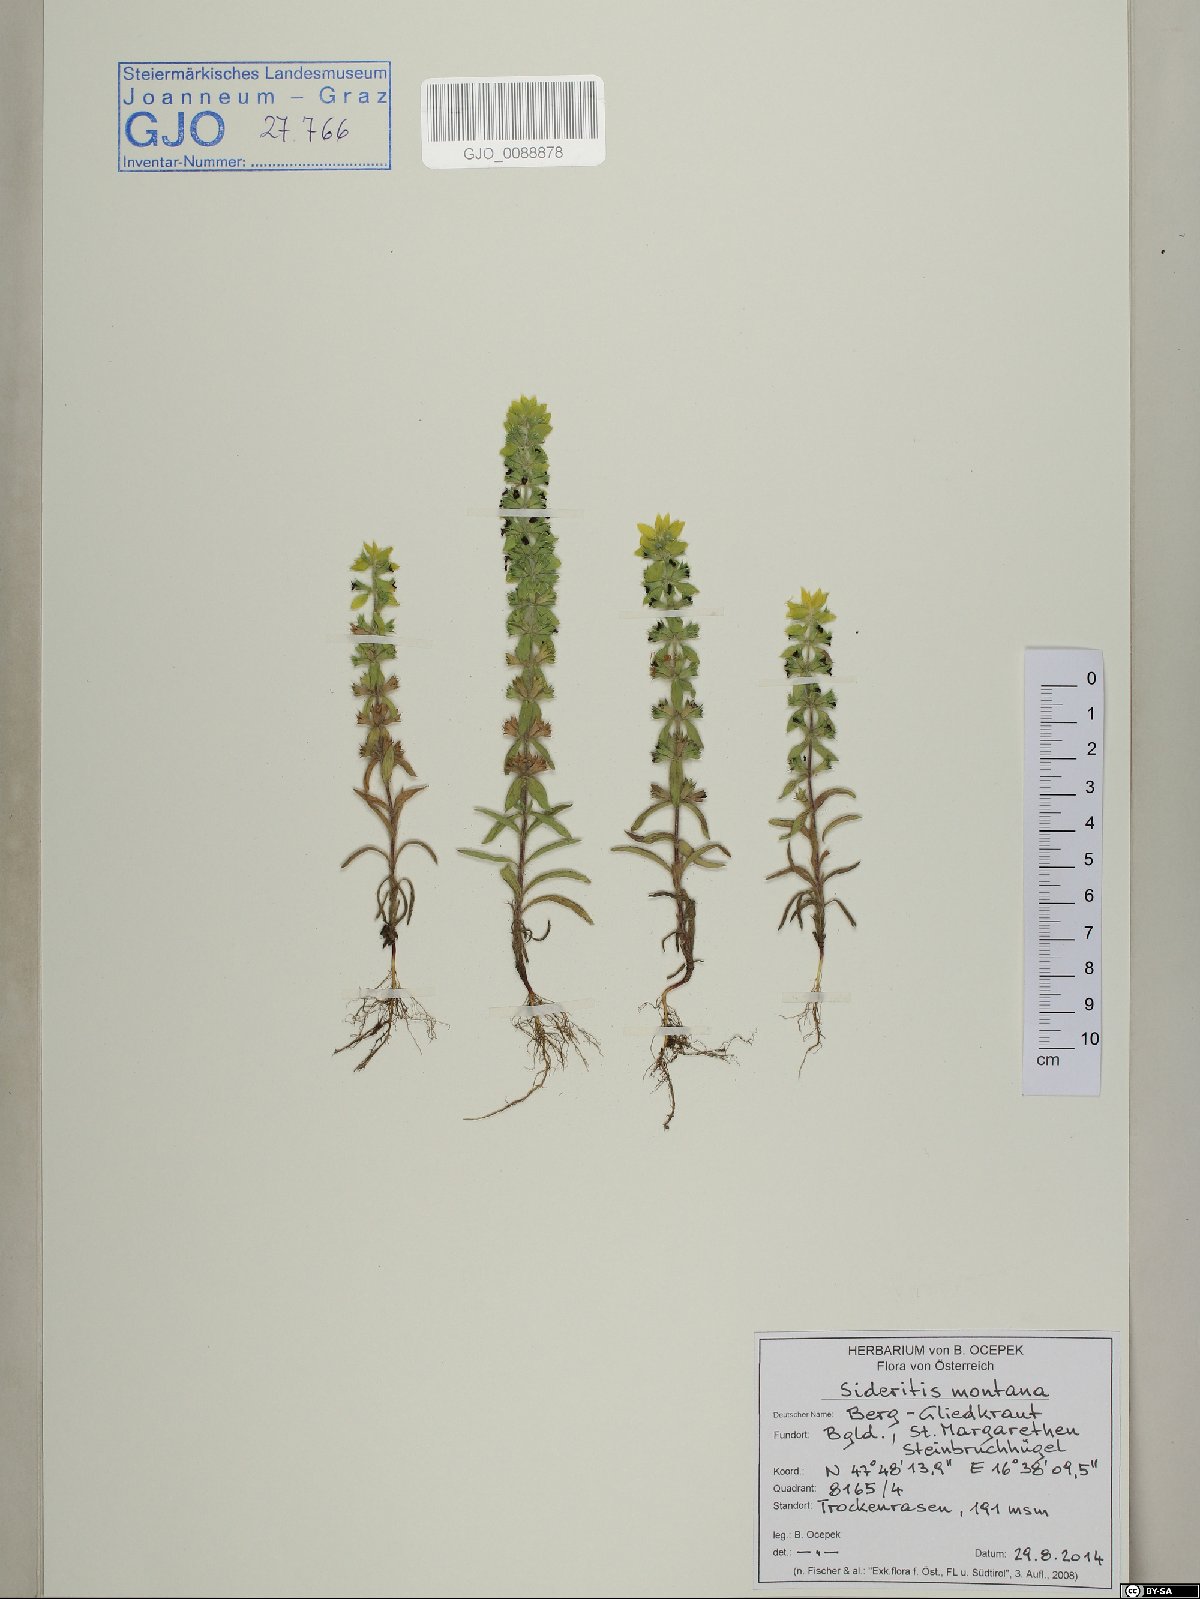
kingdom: Plantae
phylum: Tracheophyta
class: Magnoliopsida
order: Lamiales
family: Lamiaceae
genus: Sideritis
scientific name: Sideritis montana
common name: Mountain ironwort
